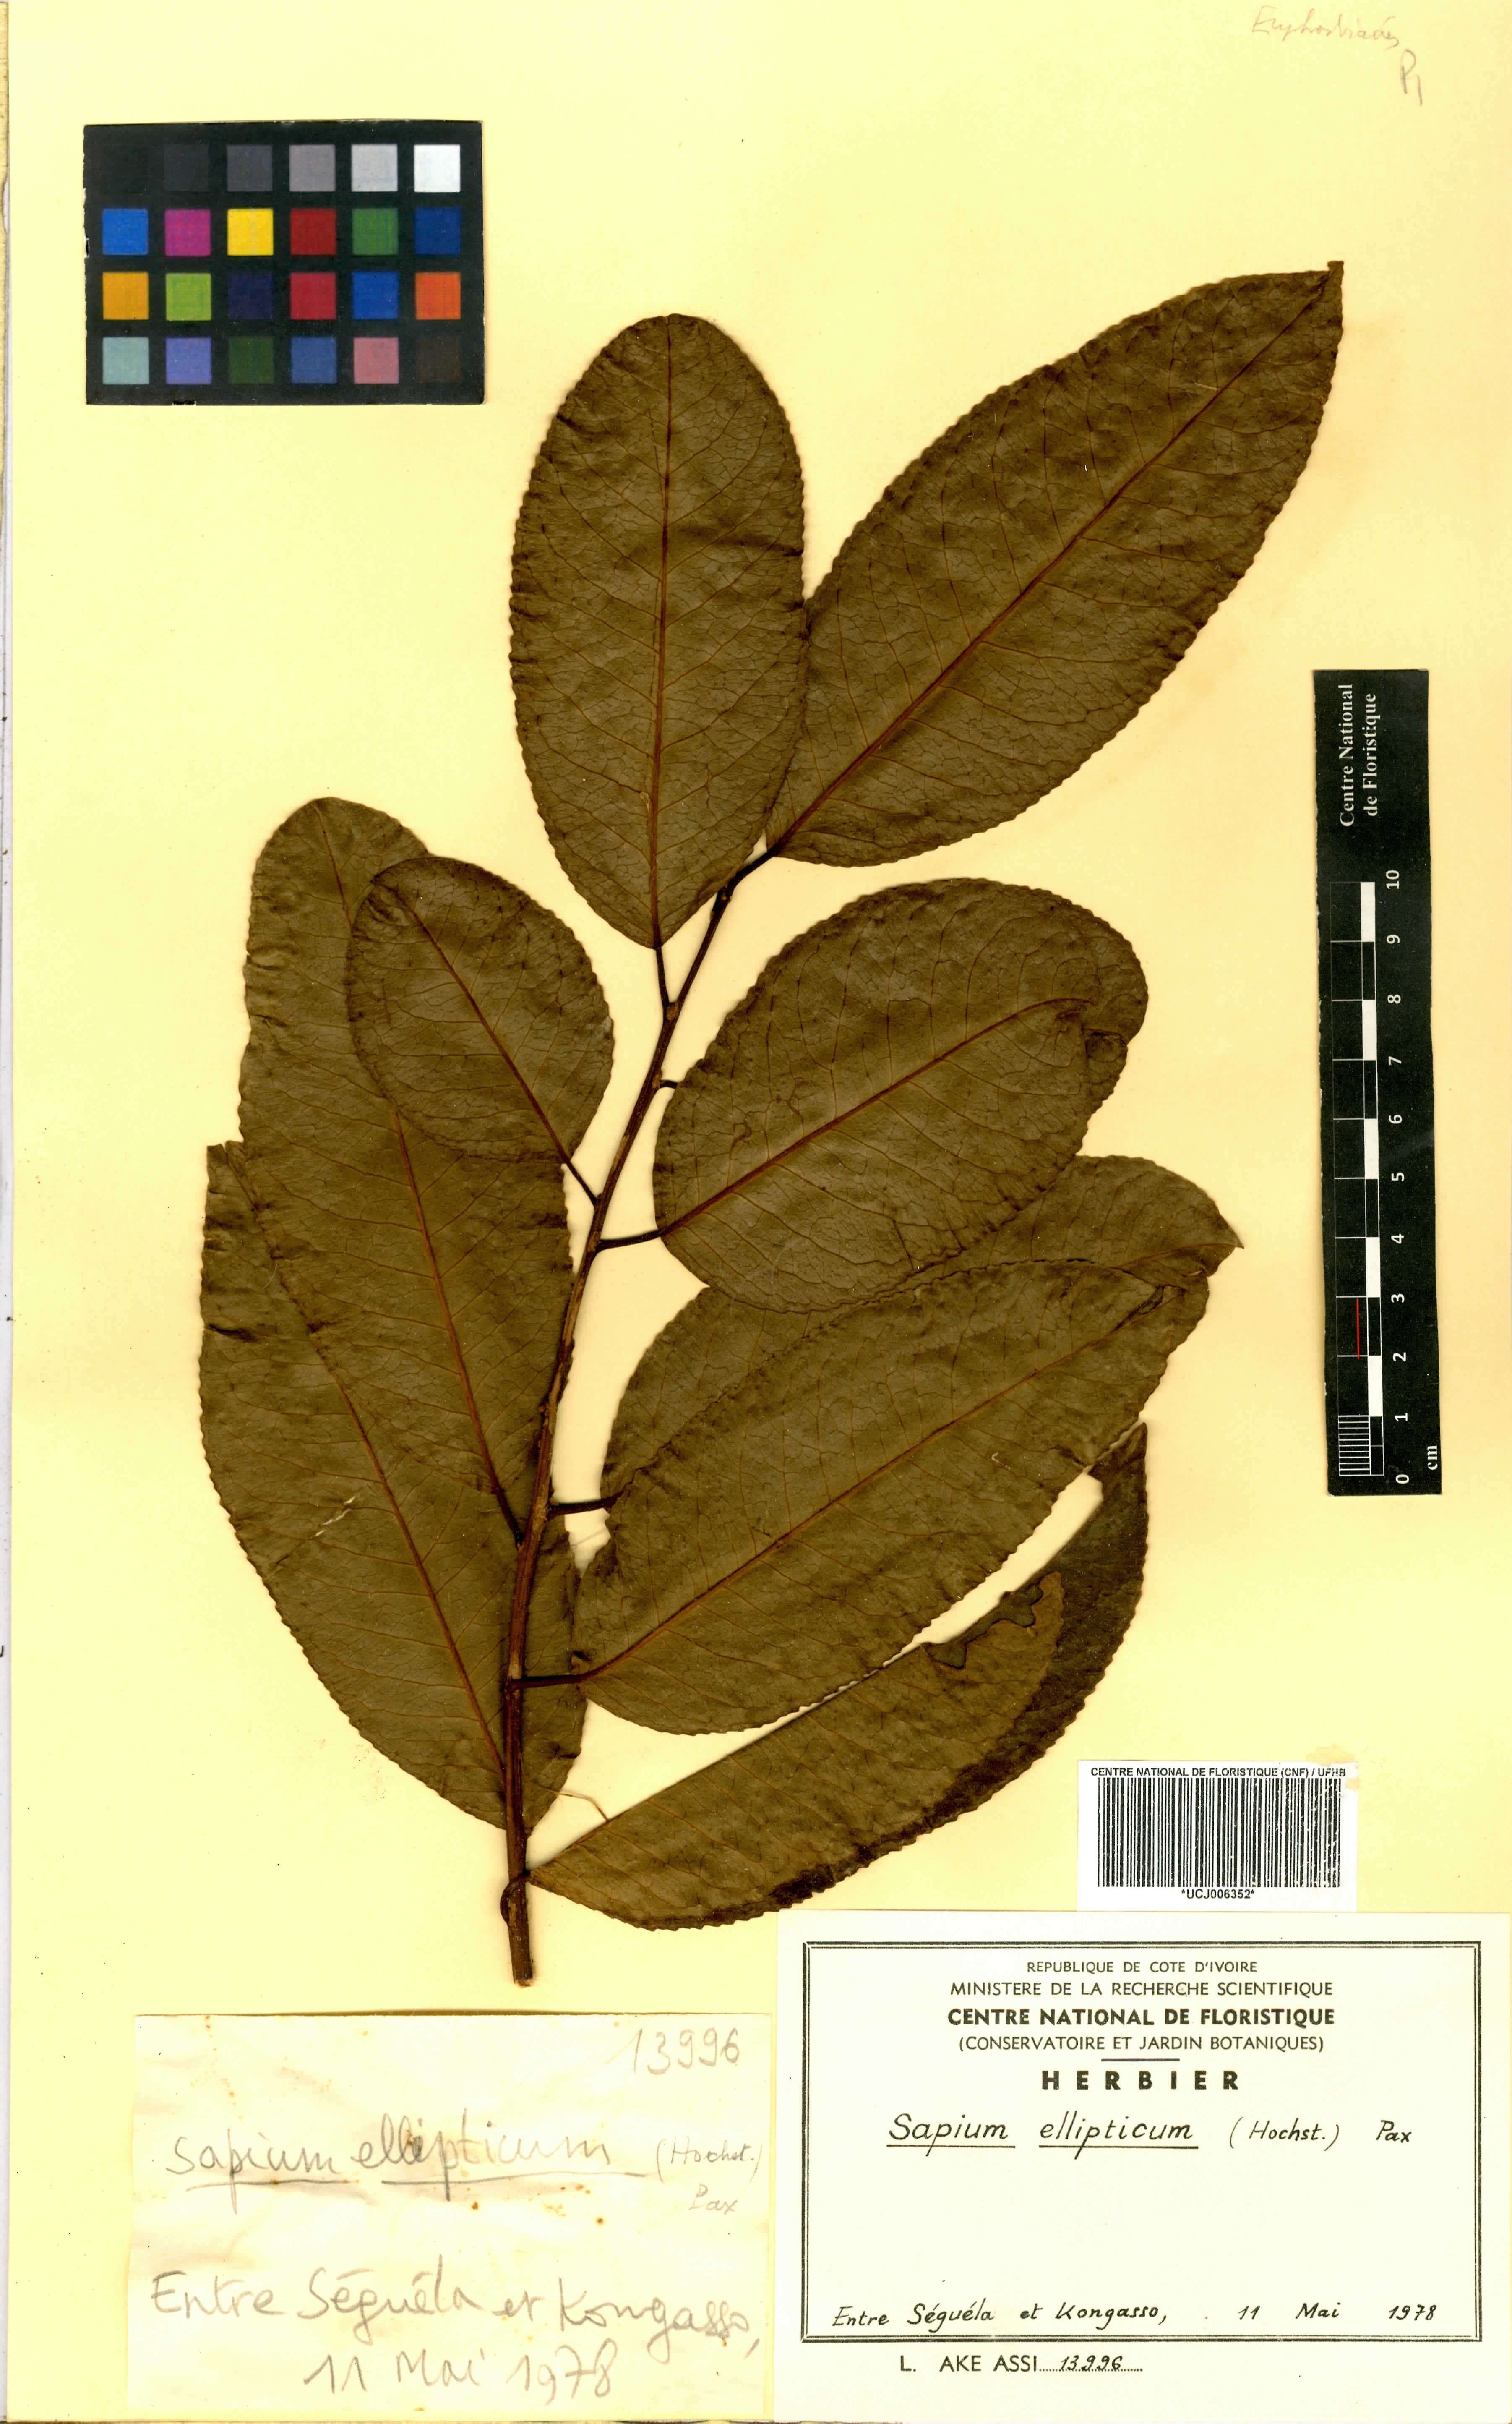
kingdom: Plantae
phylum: Tracheophyta
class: Magnoliopsida
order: Malpighiales
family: Euphorbiaceae
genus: Shirakiopsis
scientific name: Shirakiopsis elliptica
